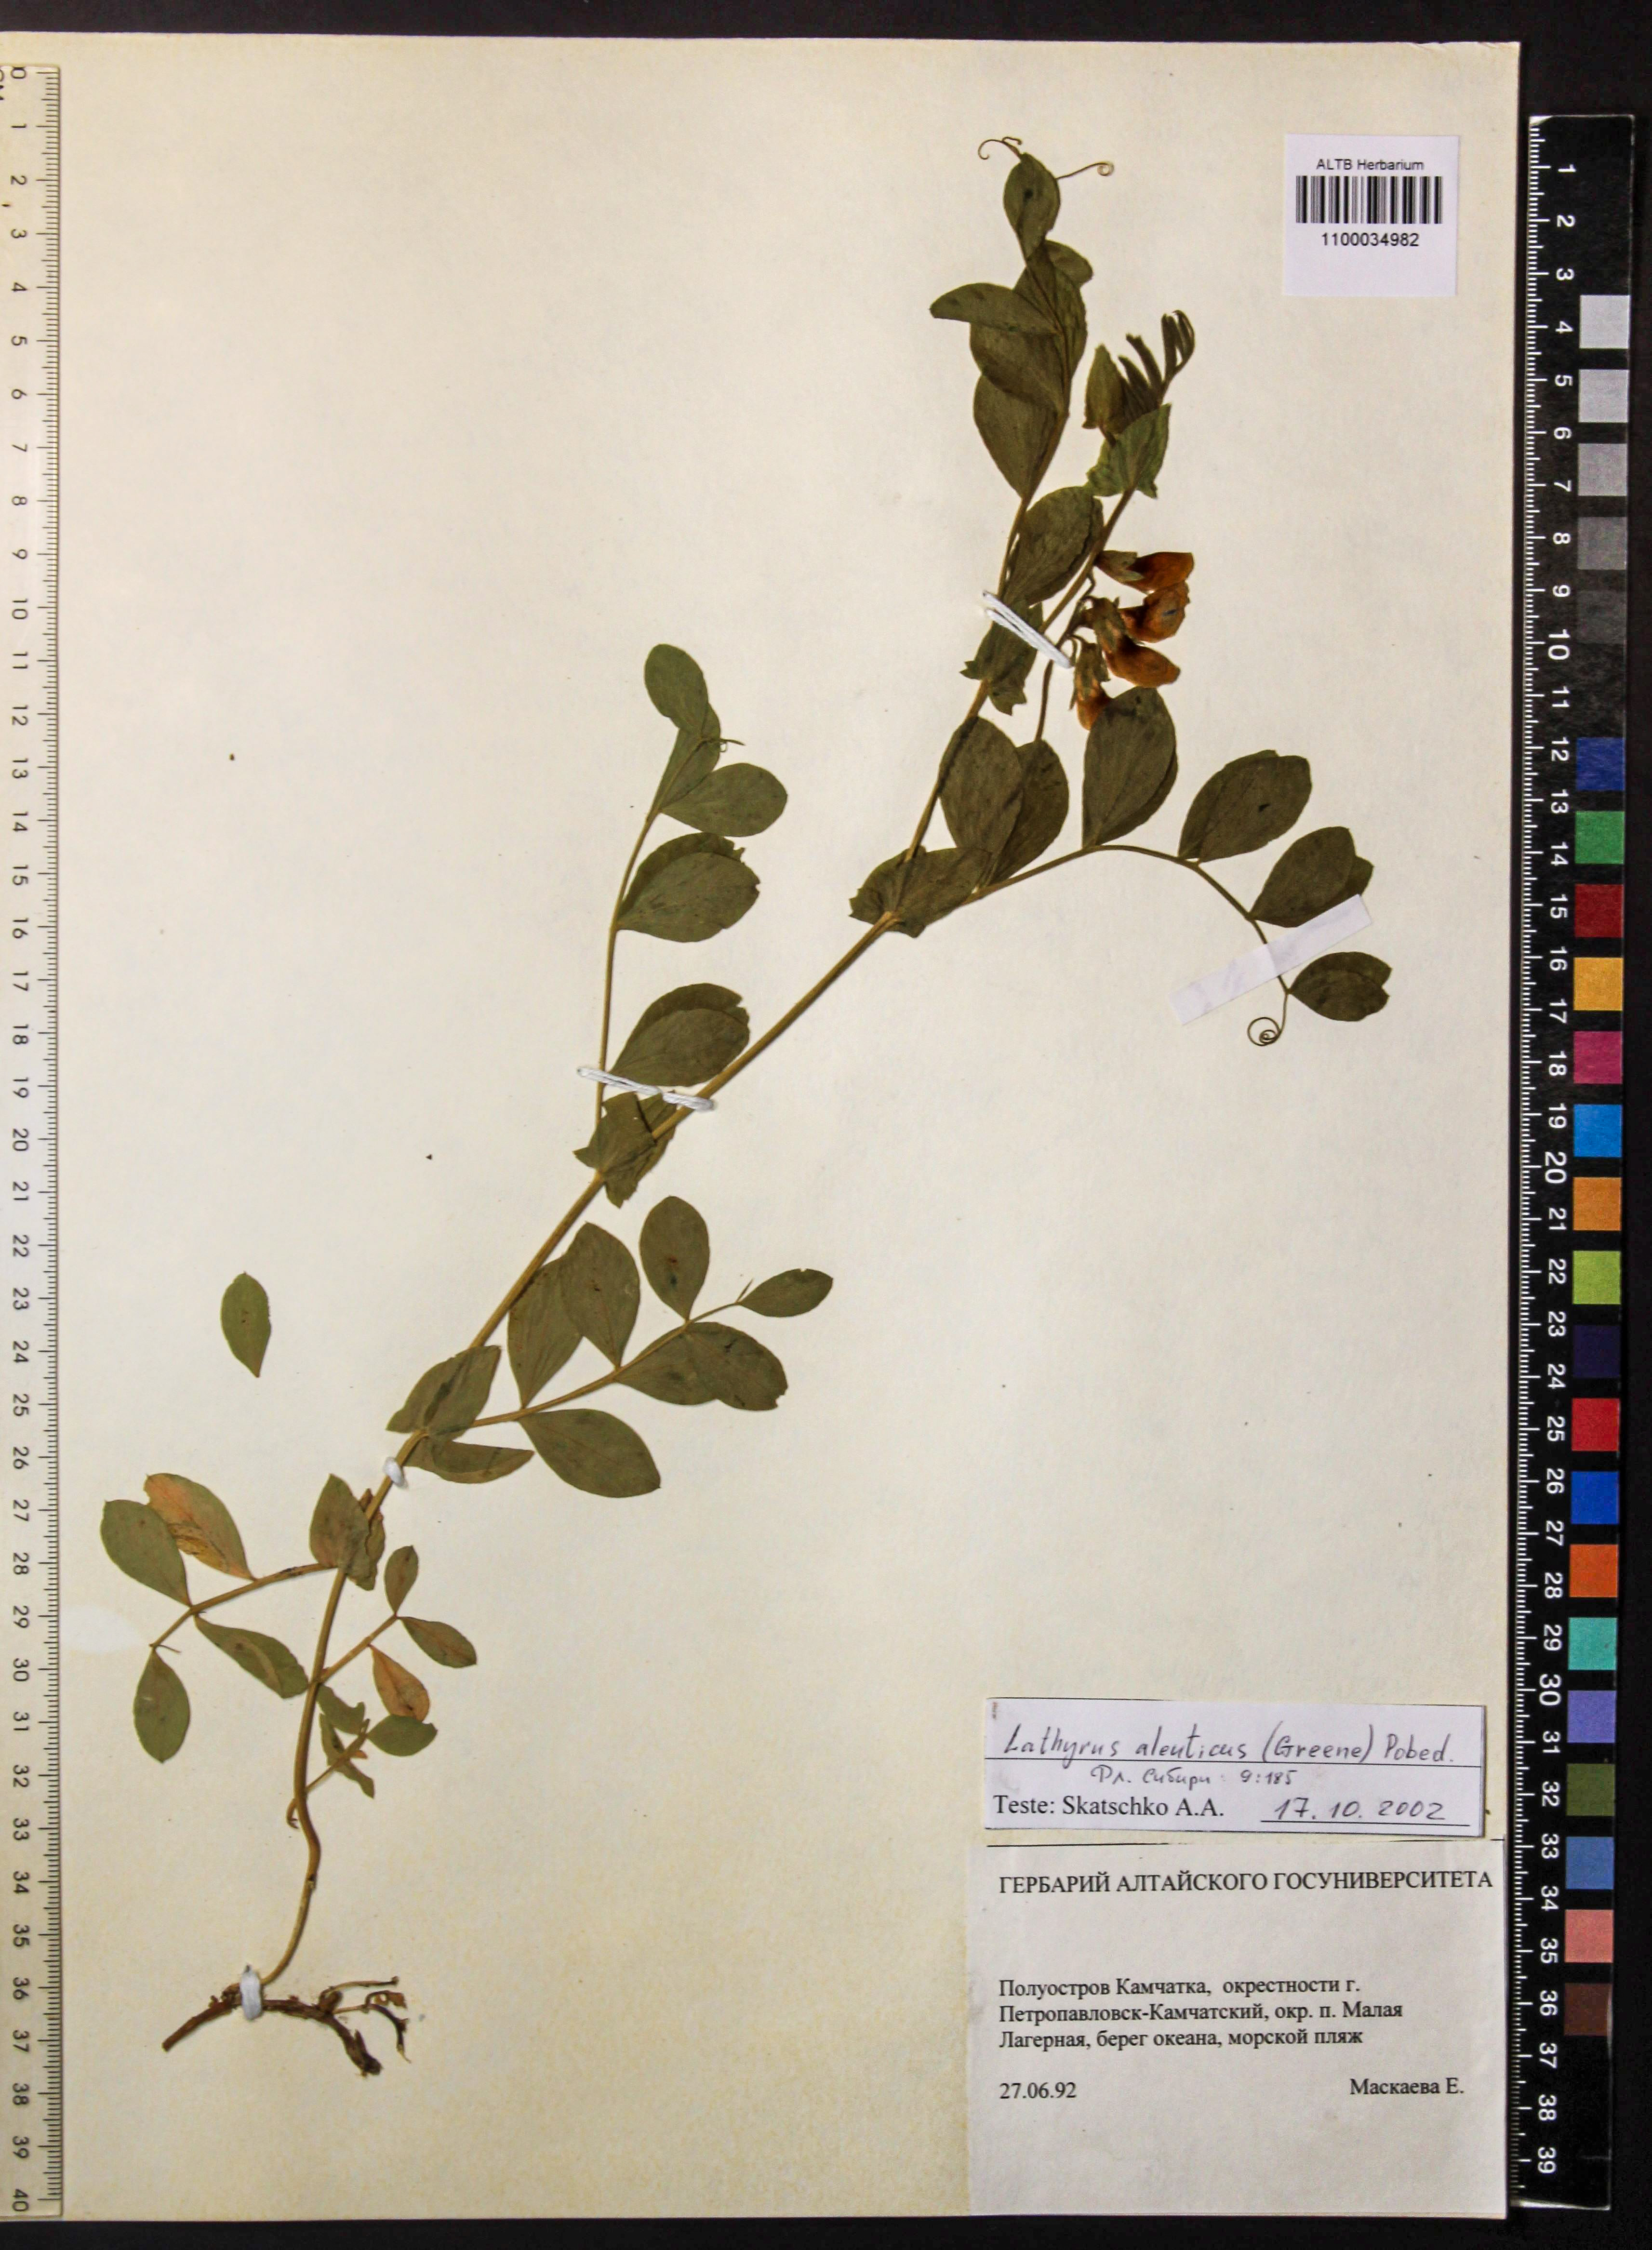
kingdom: Plantae
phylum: Tracheophyta
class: Magnoliopsida
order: Fabales
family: Fabaceae
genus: Lathyrus
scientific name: Lathyrus japonicus
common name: Sea pea
